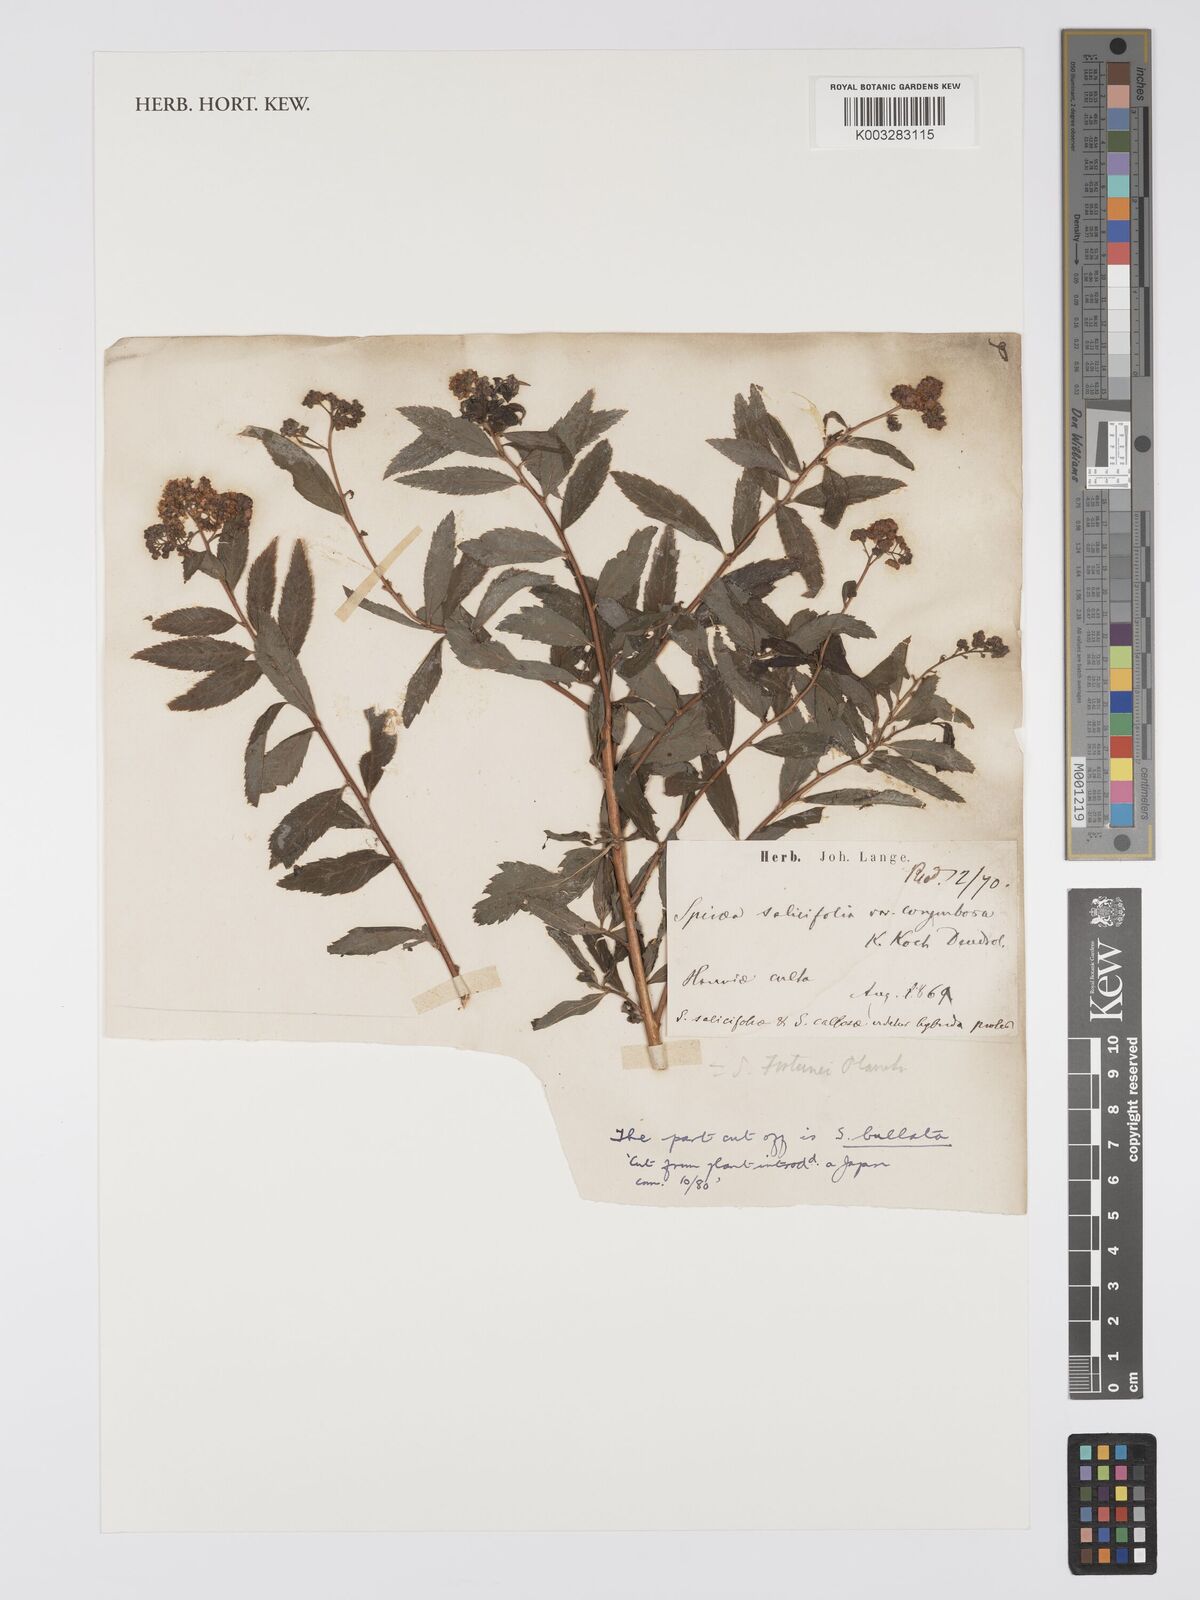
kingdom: Plantae
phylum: Tracheophyta
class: Magnoliopsida
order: Rosales
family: Rosaceae
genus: Spiraea
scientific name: Spiraea salicifolia
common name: Bridewort
